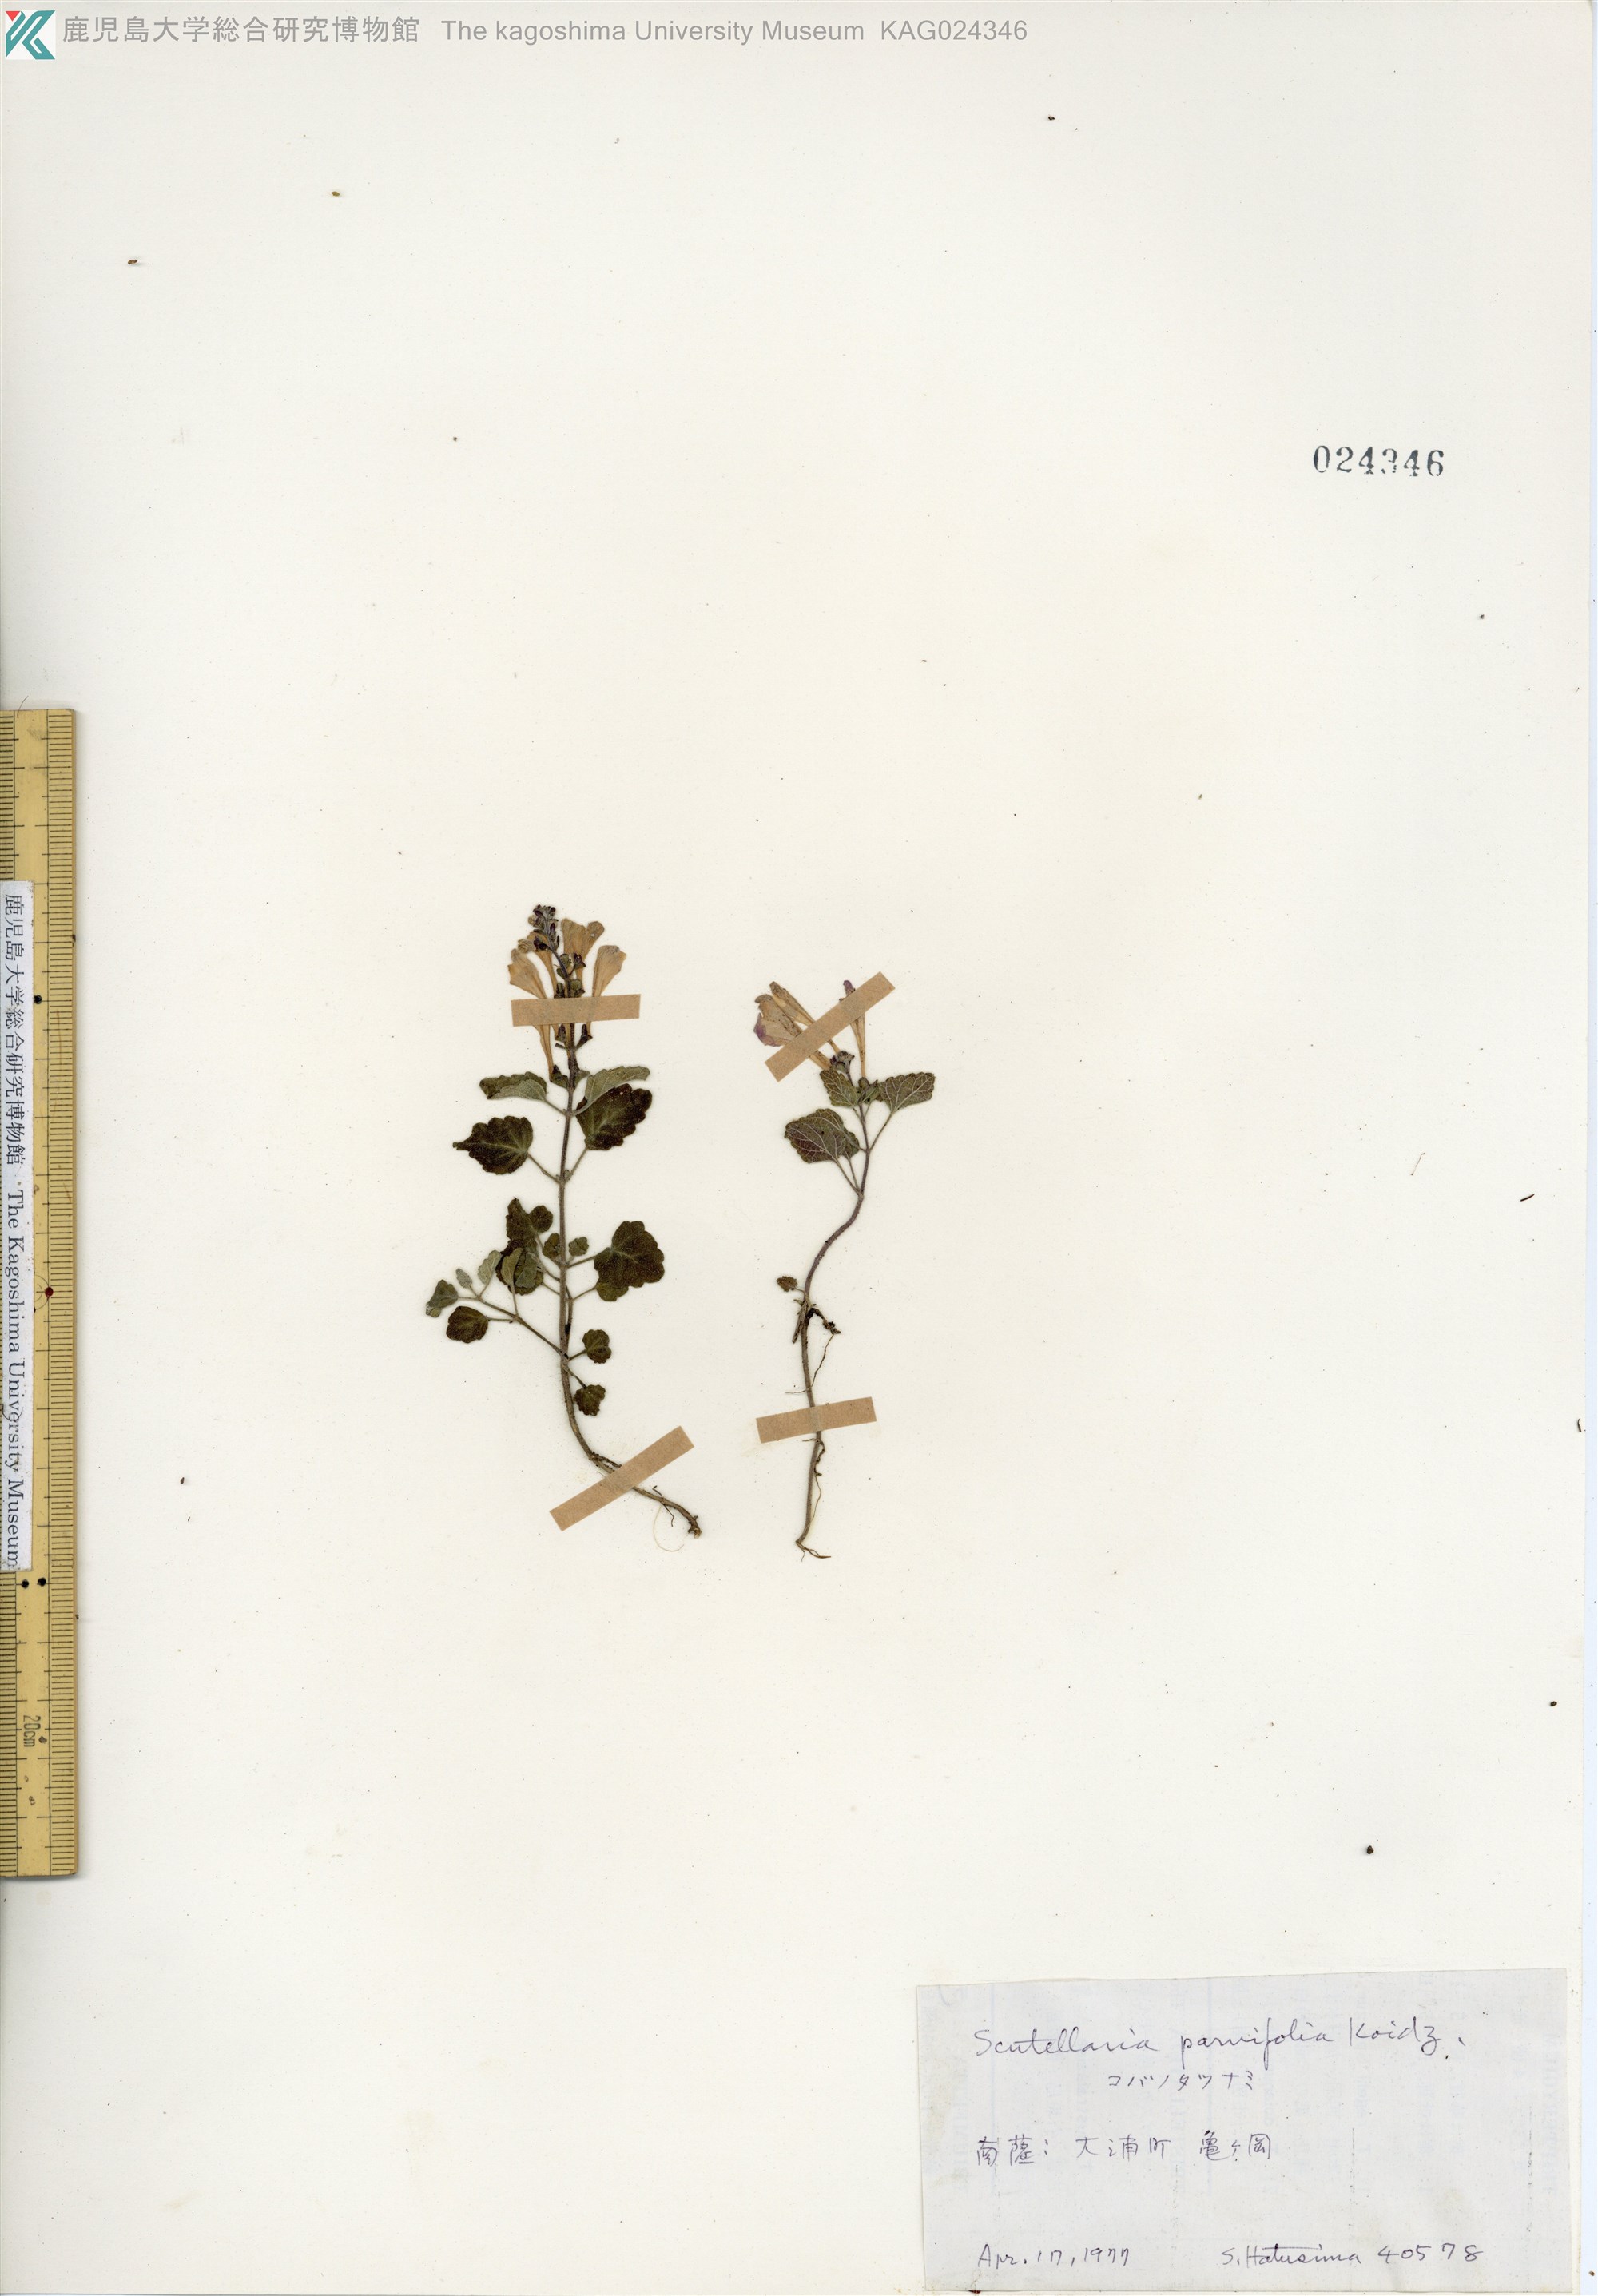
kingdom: Plantae
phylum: Tracheophyta
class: Magnoliopsida
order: Lamiales
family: Lamiaceae
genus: Scutellaria
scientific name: Scutellaria indica
